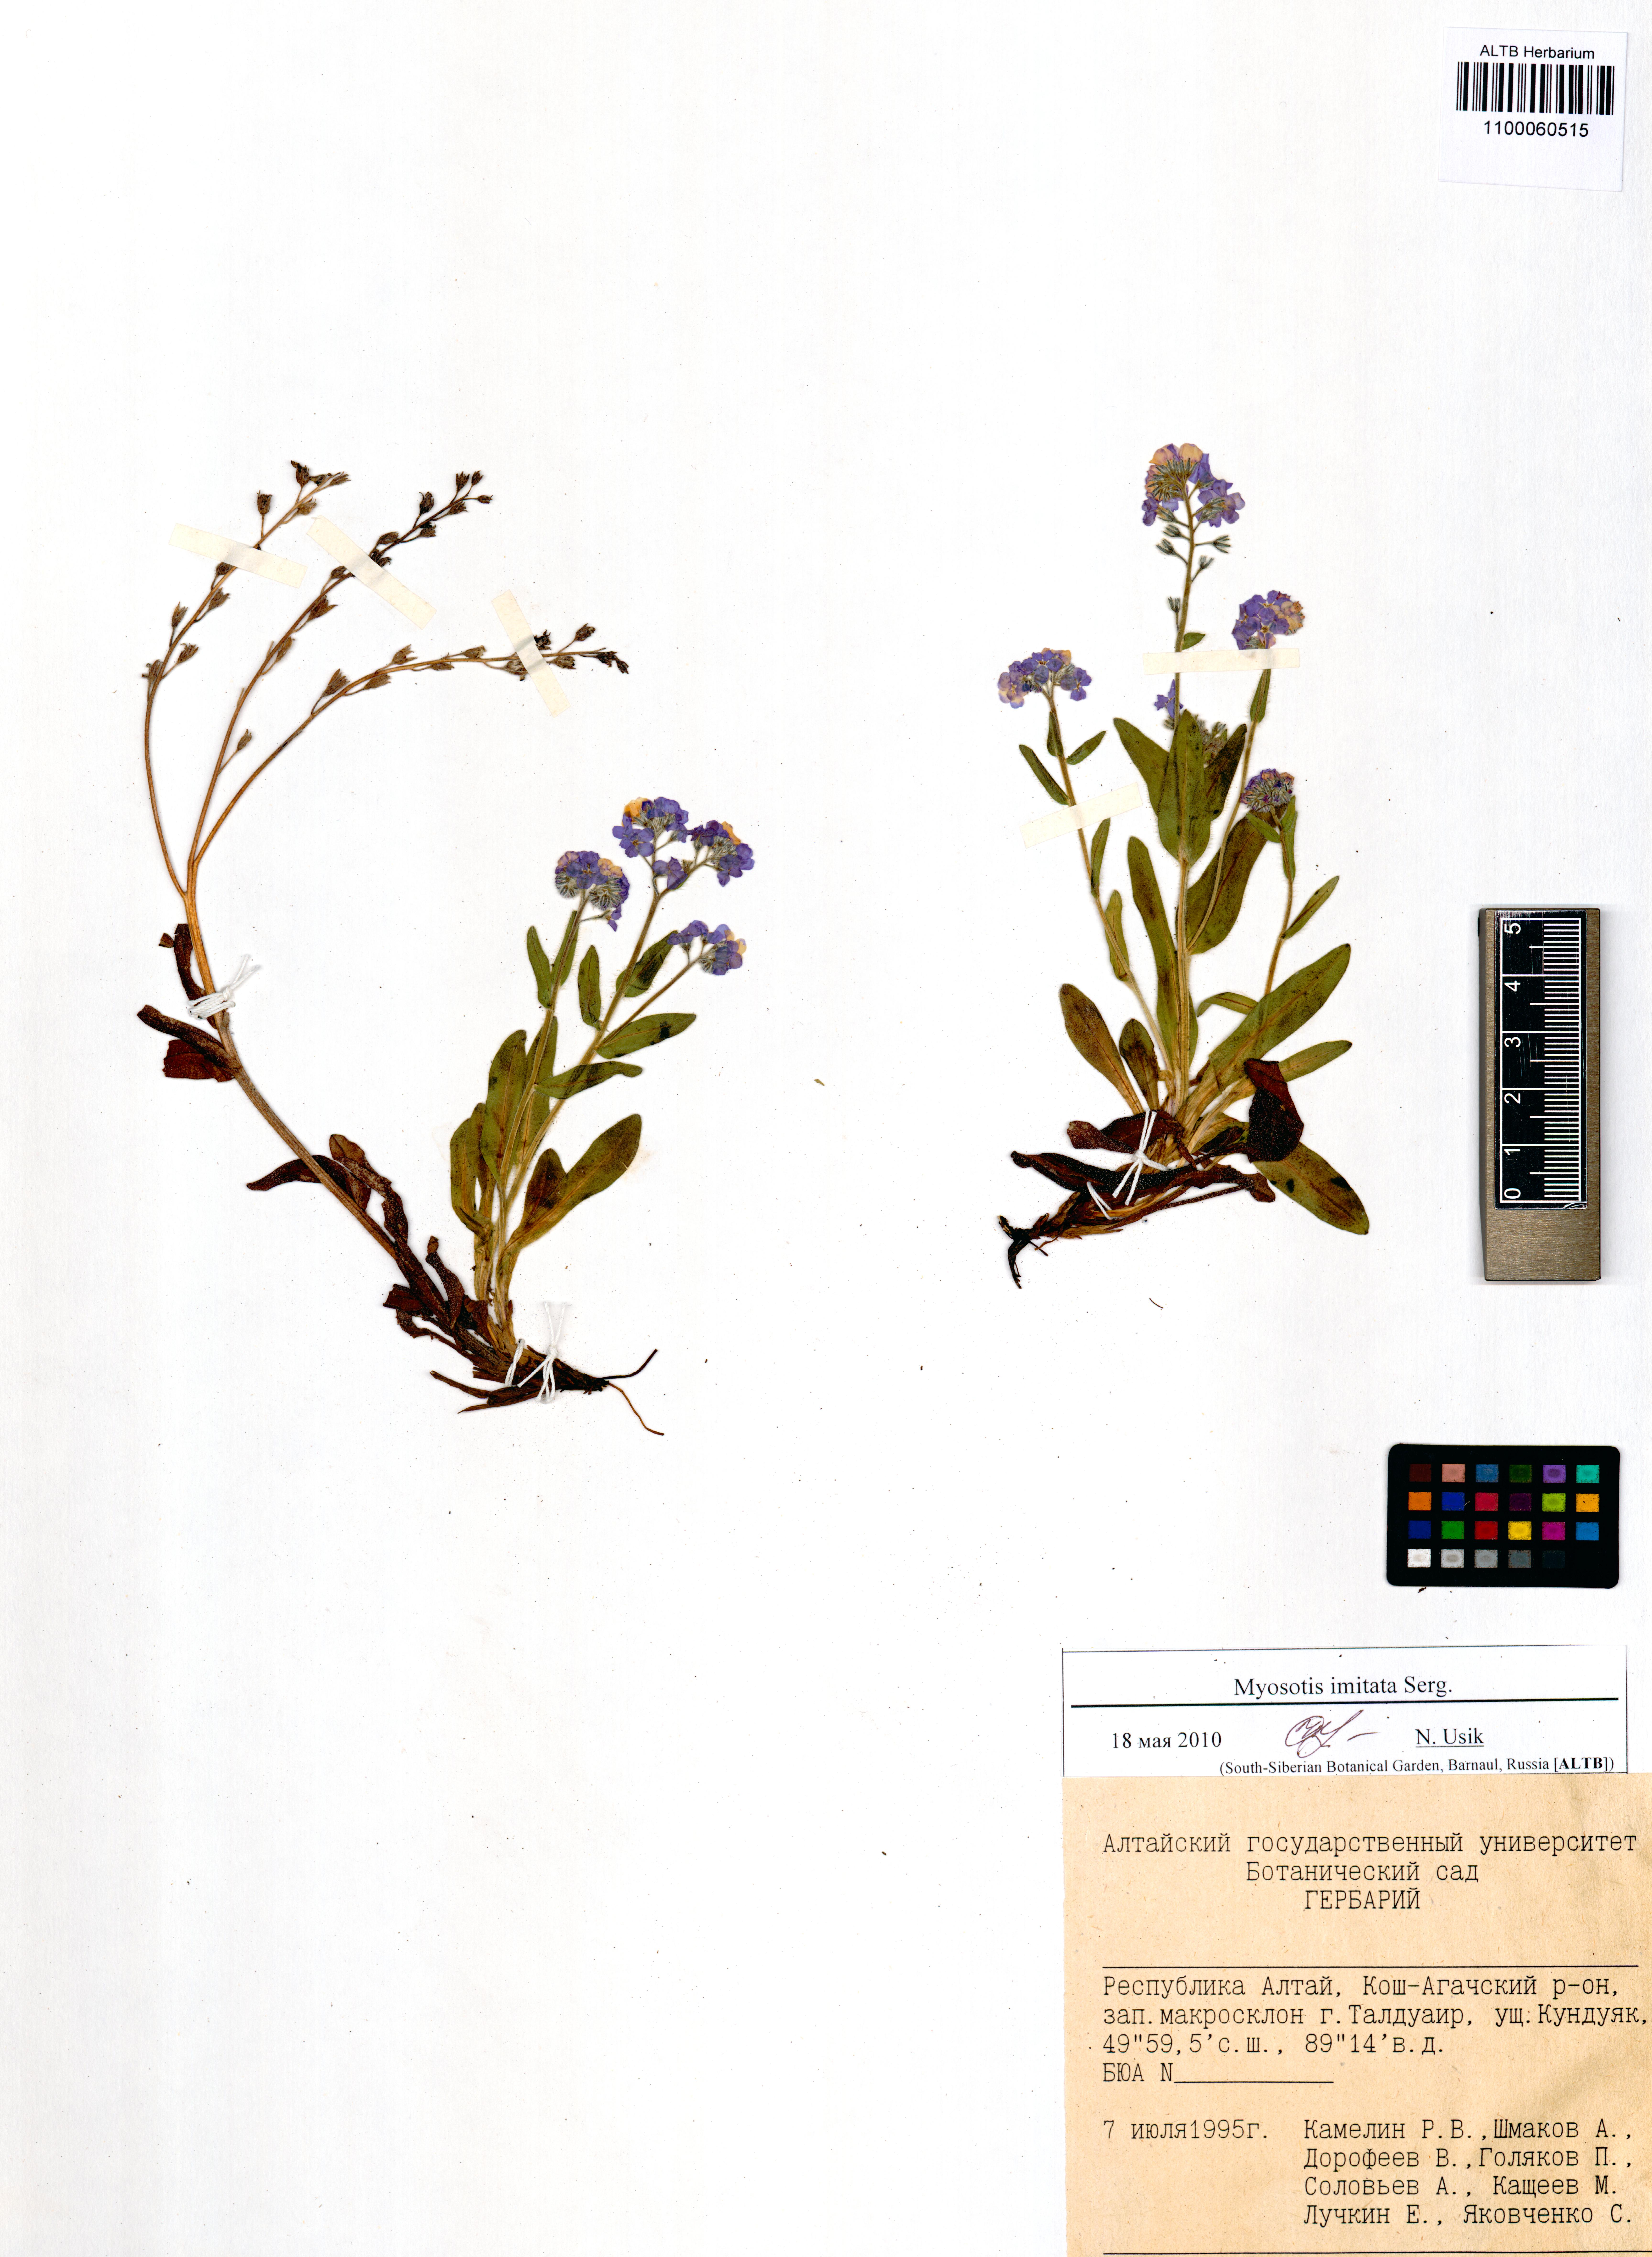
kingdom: Plantae
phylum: Tracheophyta
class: Magnoliopsida
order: Boraginales
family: Boraginaceae
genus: Myosotis
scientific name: Myosotis imitata
